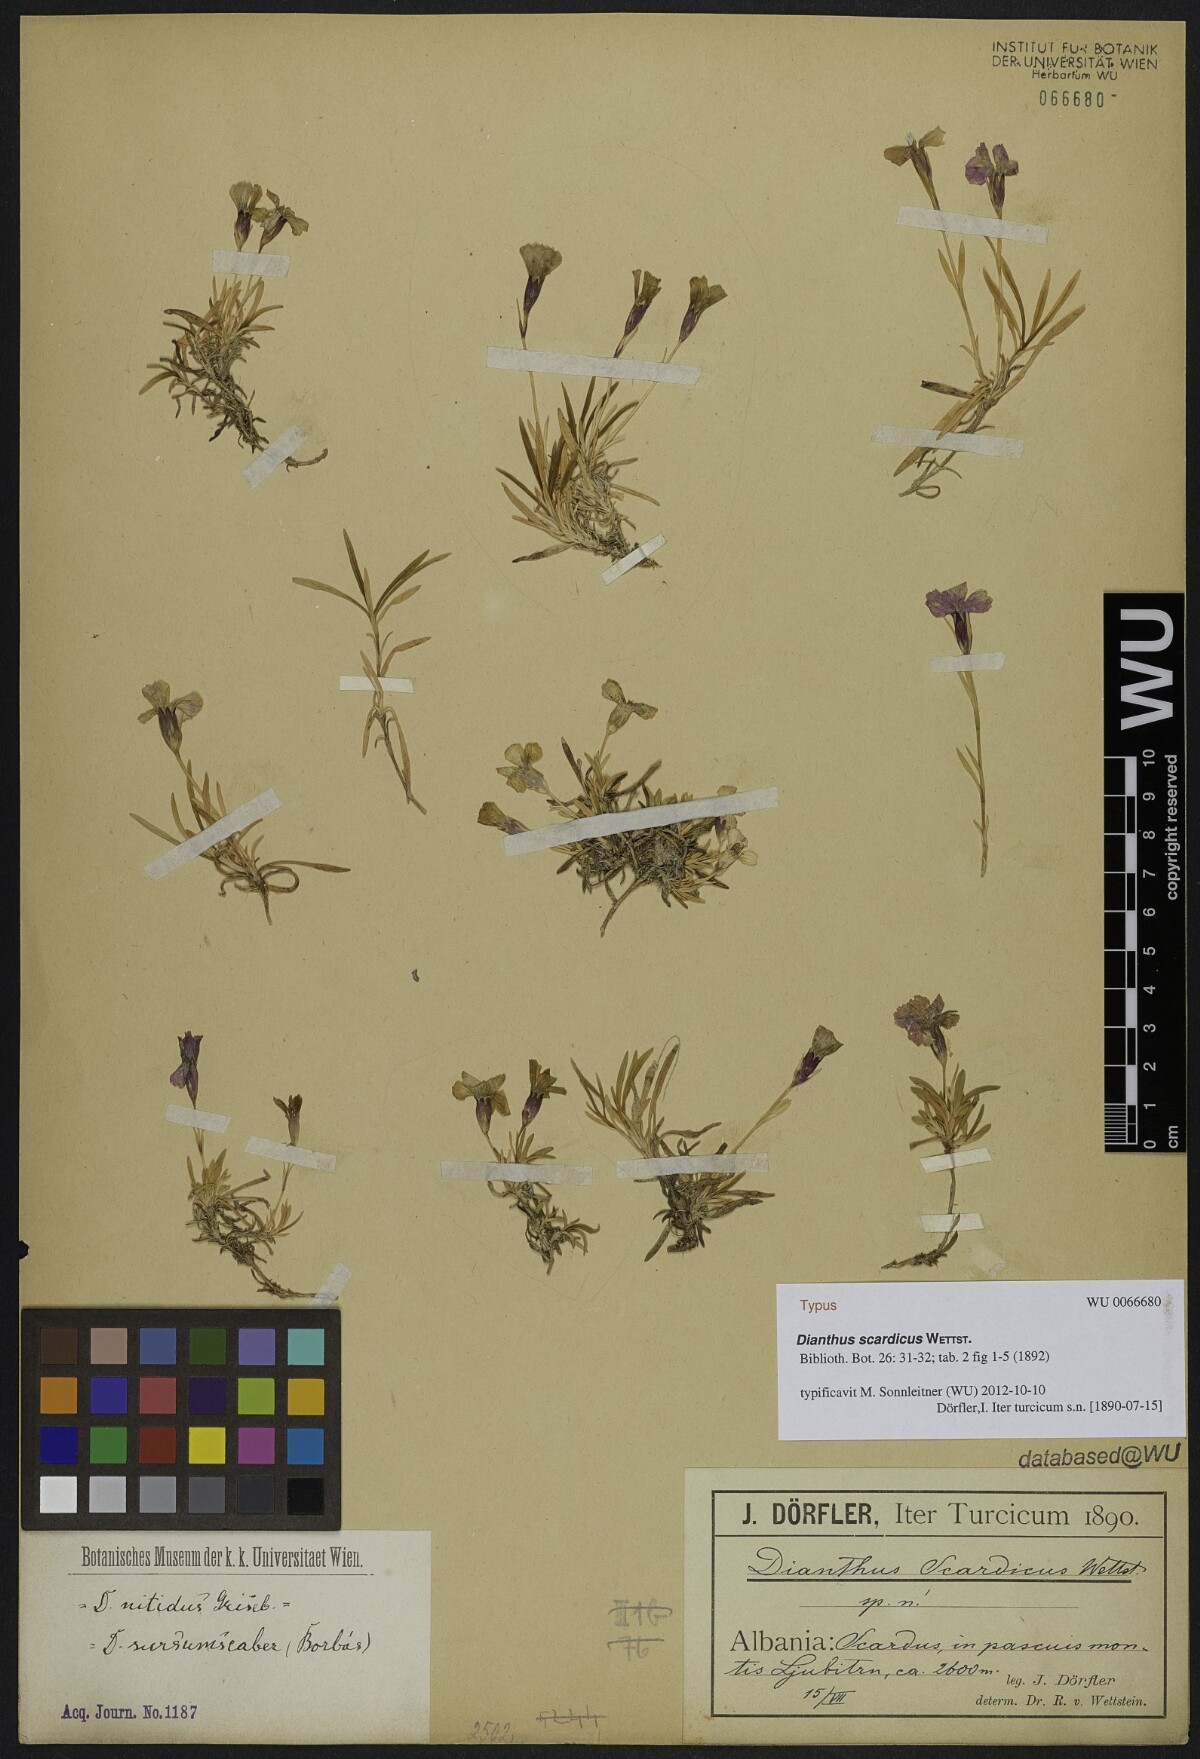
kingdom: Plantae
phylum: Tracheophyta
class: Magnoliopsida
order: Caryophyllales
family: Caryophyllaceae
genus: Dianthus
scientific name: Dianthus scardicus
